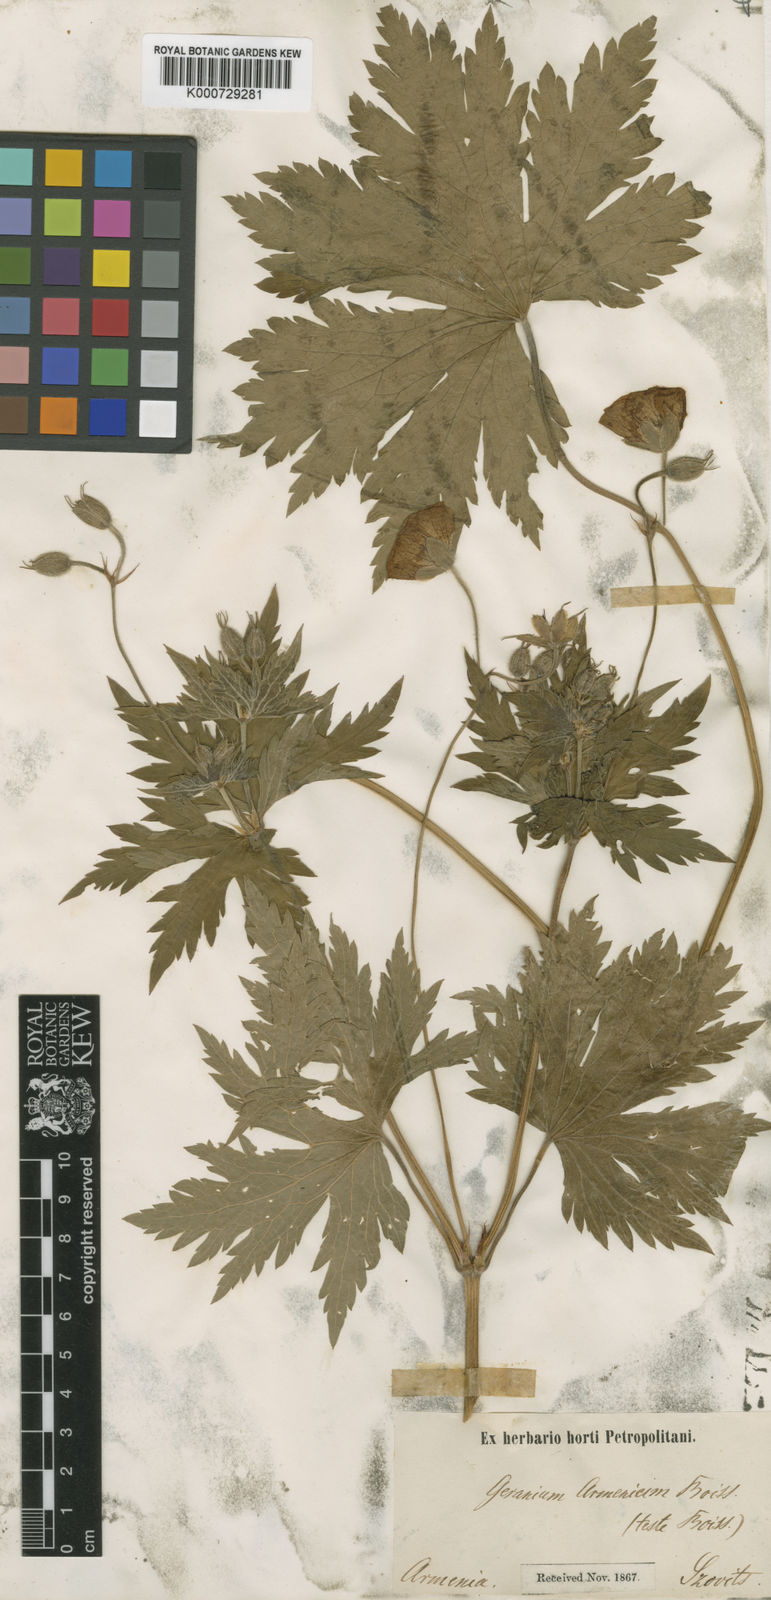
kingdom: Plantae
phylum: Tracheophyta
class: Magnoliopsida
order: Geraniales
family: Geraniaceae
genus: Geranium
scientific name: Geranium psilostemon
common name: Armenian crane's-bill
